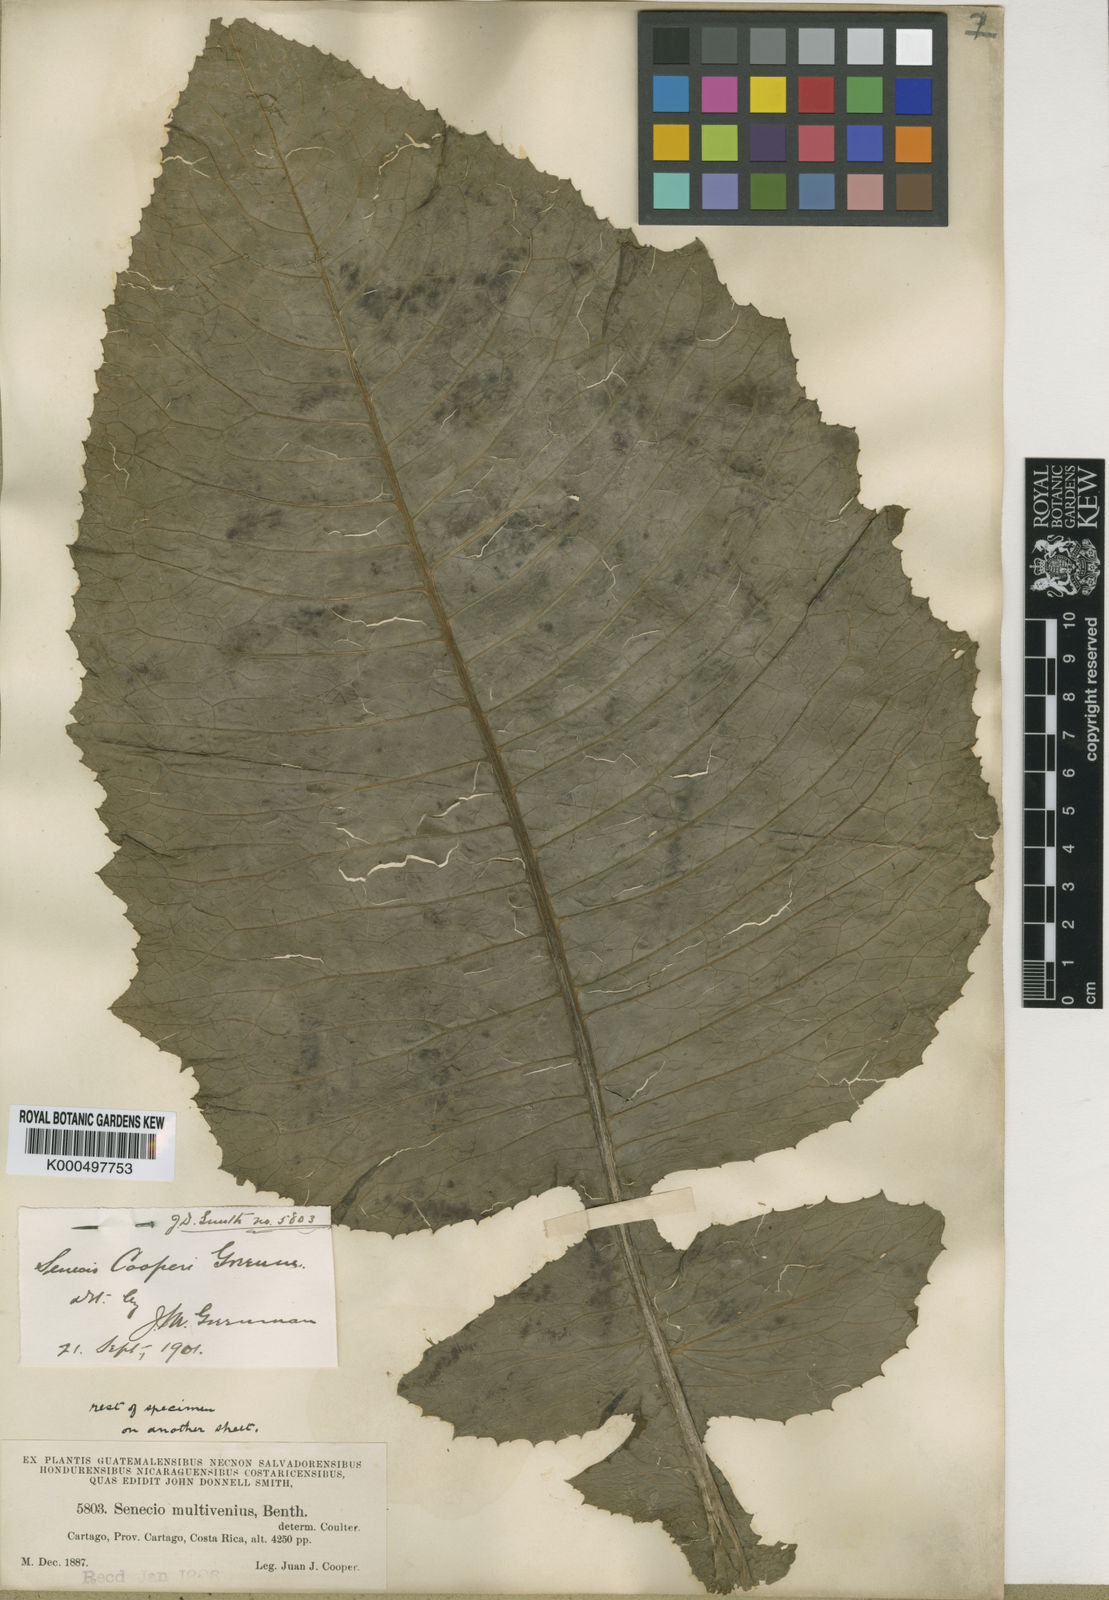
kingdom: Plantae
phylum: Tracheophyta
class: Magnoliopsida
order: Asterales
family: Asteraceae
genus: Jessea
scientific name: Jessea cooperi
